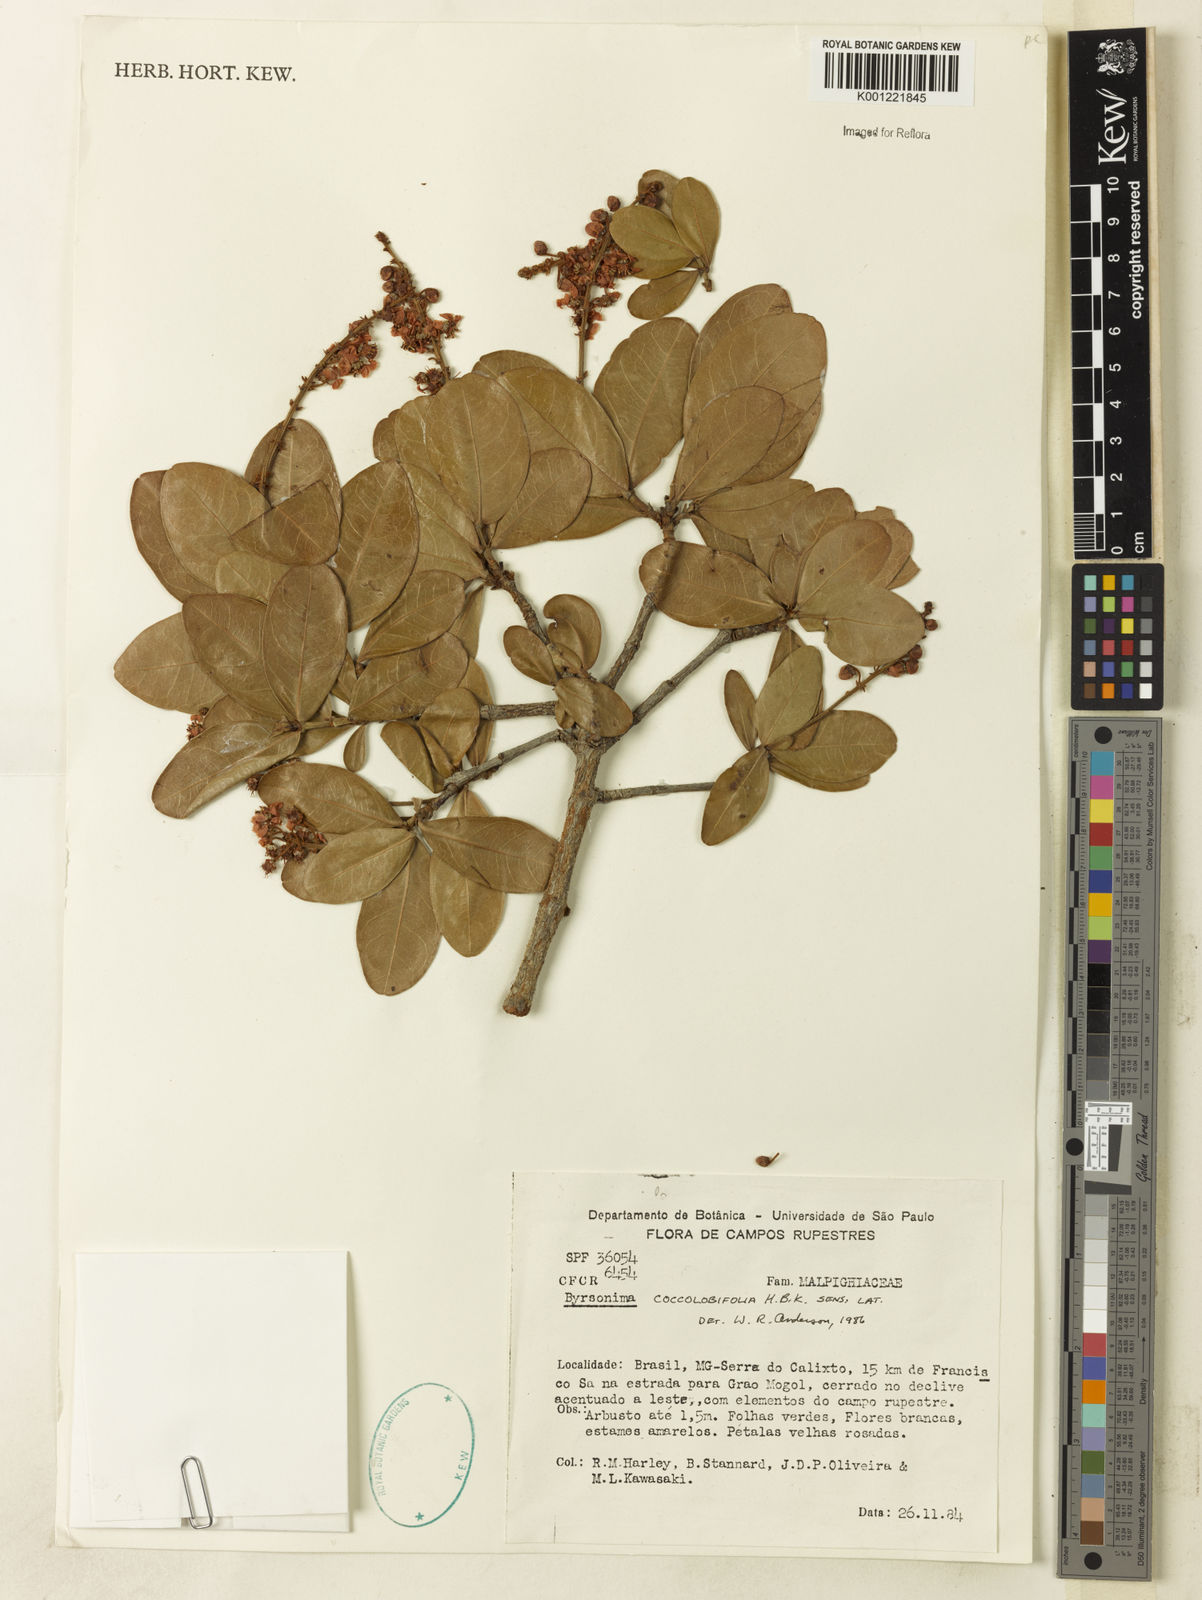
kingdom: Plantae
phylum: Tracheophyta
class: Magnoliopsida
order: Malpighiales
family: Malpighiaceae
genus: Byrsonima
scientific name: Byrsonima coccolobifolia
